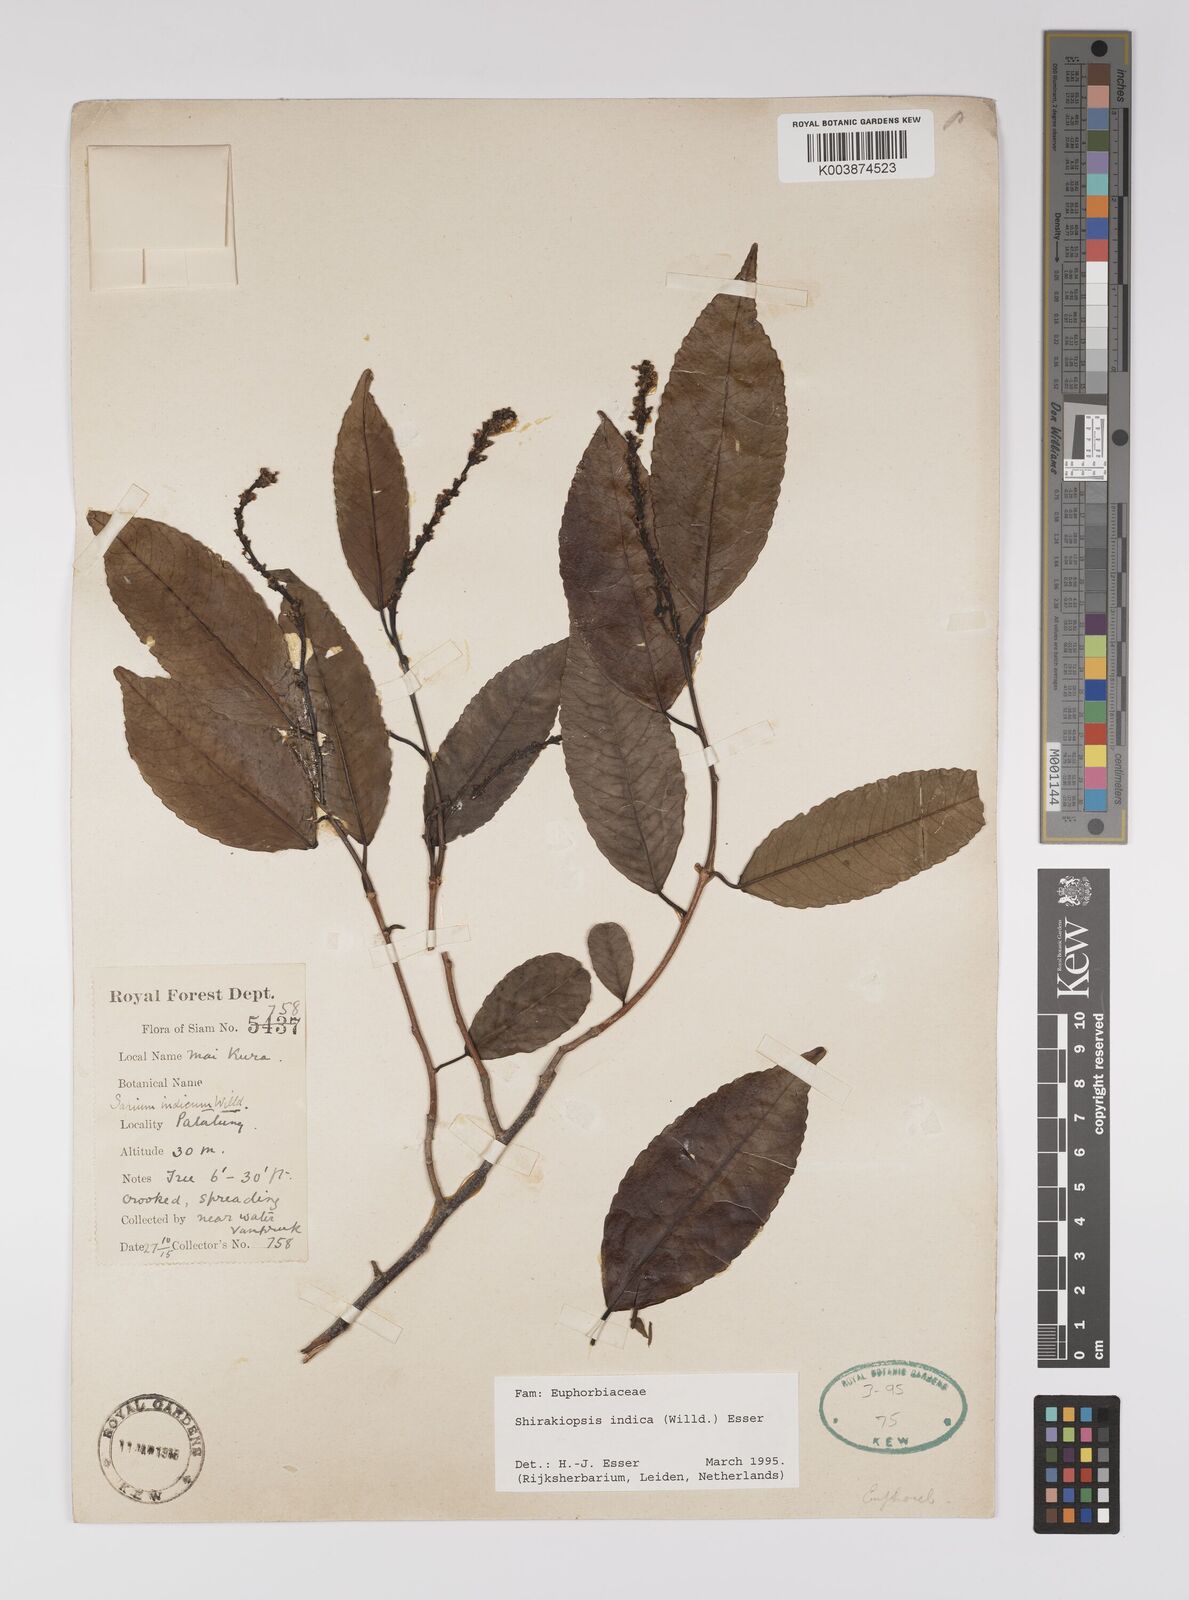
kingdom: Plantae
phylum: Tracheophyta
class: Magnoliopsida
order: Malpighiales
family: Euphorbiaceae
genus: Shirakiopsis
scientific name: Shirakiopsis indica
